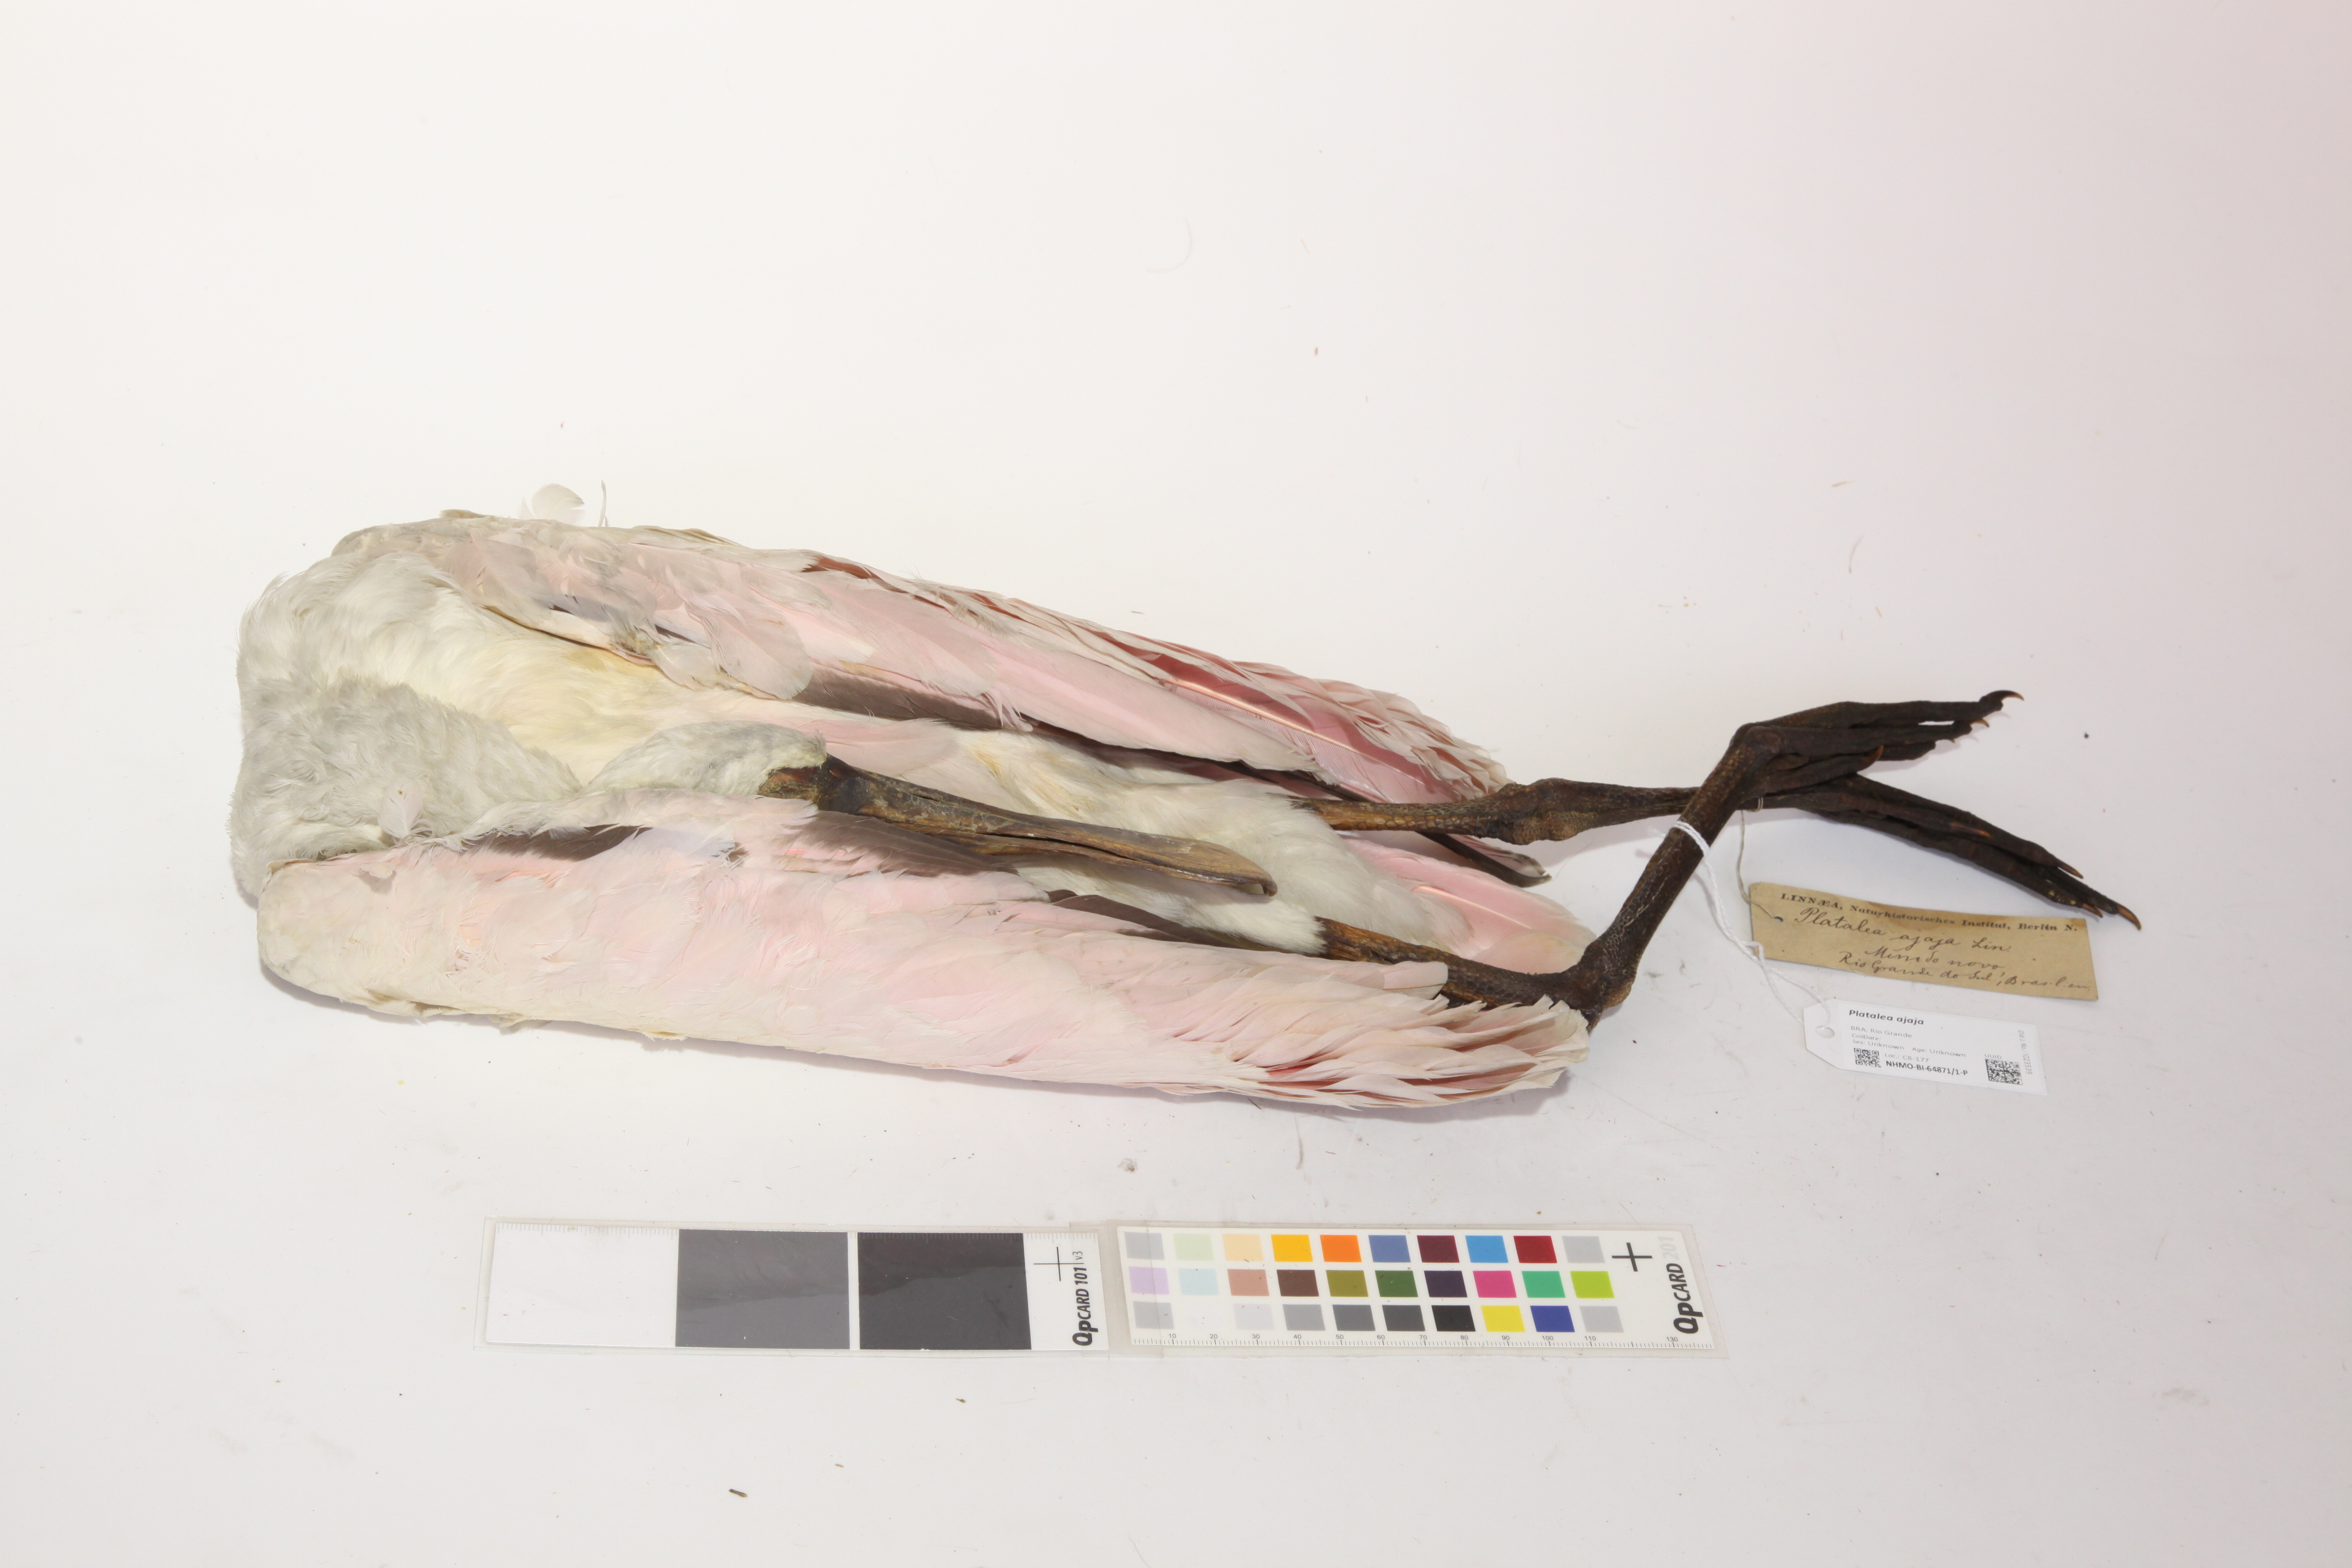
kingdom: Animalia
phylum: Chordata
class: Aves
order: Pelecaniformes
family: Threskiornithidae
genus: Platalea
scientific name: Platalea ajaja
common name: Roseate spoonbill
